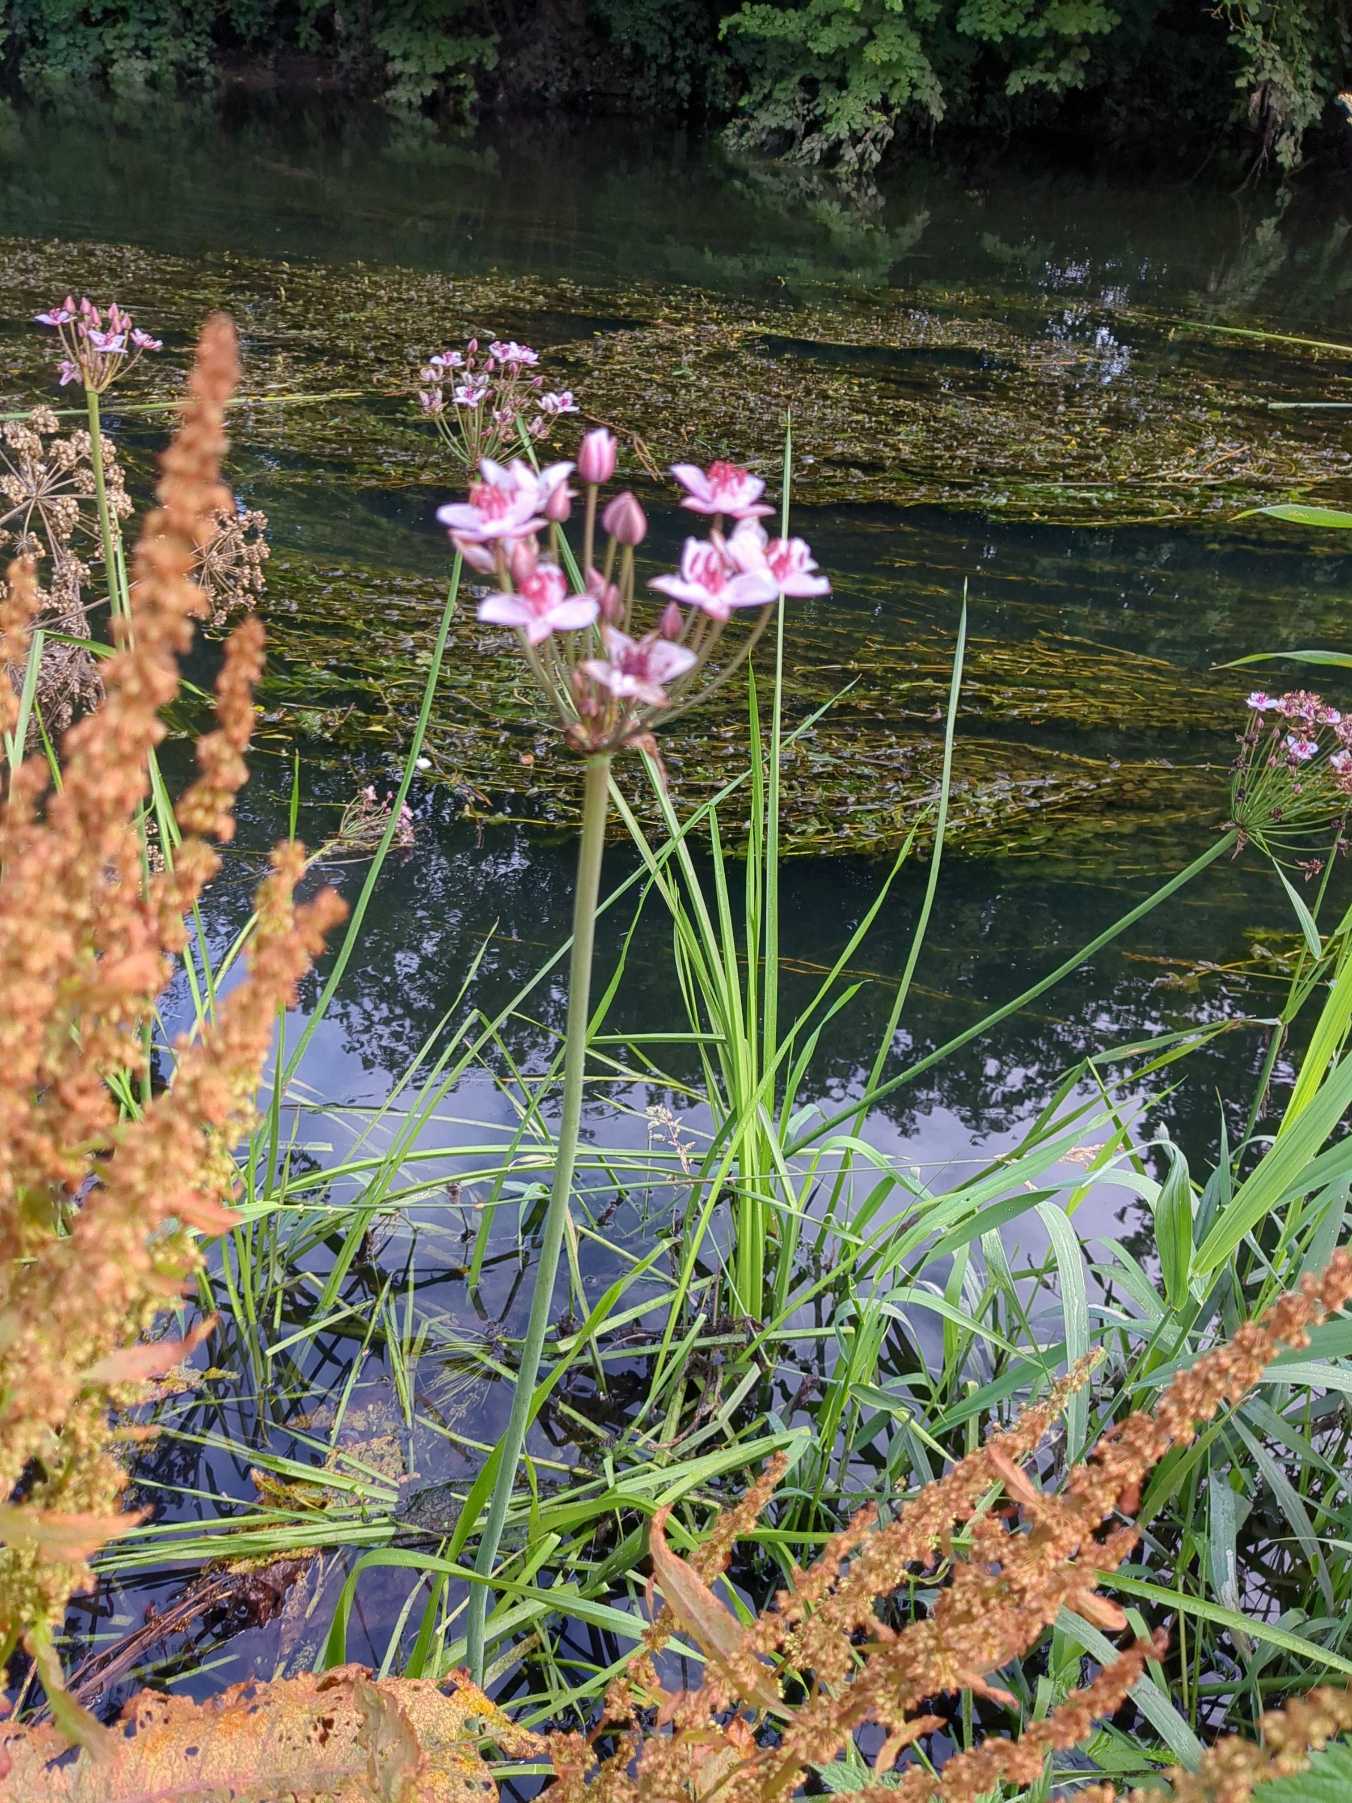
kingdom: Plantae
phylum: Tracheophyta
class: Liliopsida
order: Alismatales
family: Butomaceae
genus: Butomus
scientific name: Butomus umbellatus
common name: Brudelys
